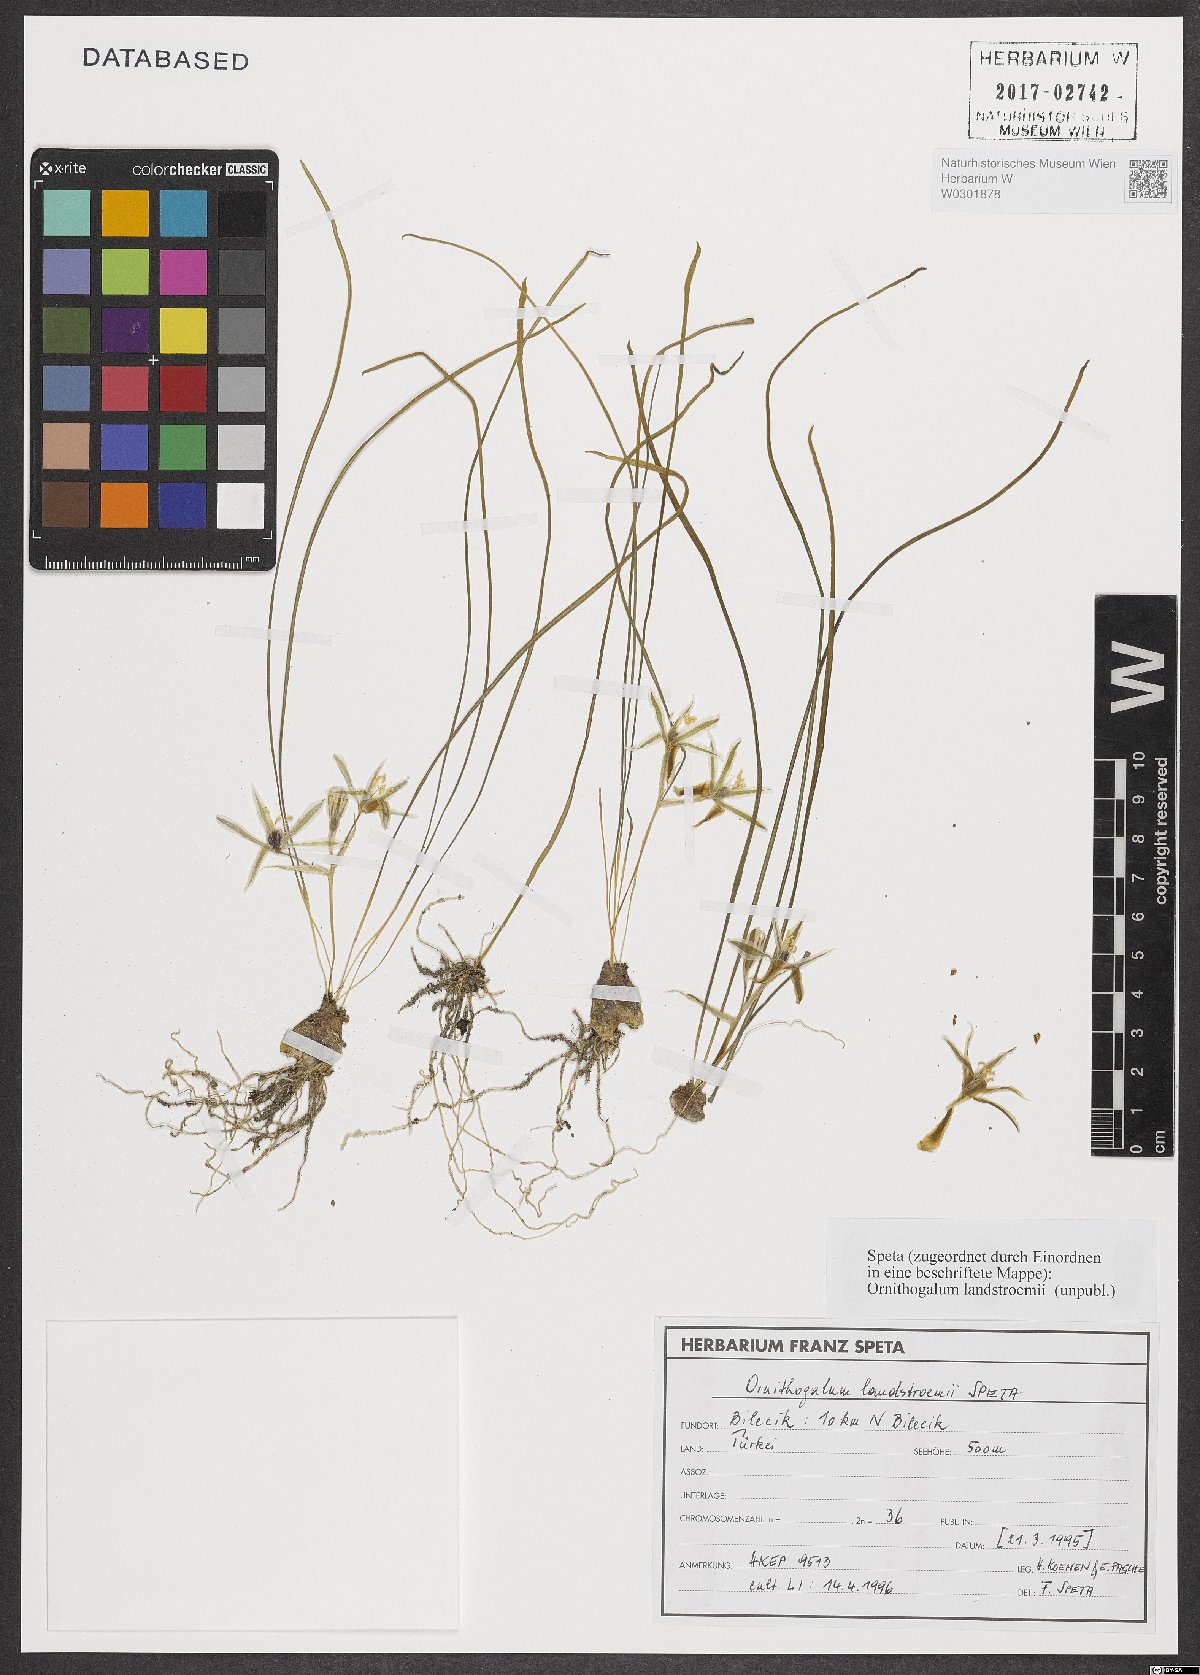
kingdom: Plantae
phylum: Tracheophyta
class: Liliopsida
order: Asparagales
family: Asparagaceae
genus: Ornithogalum
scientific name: Ornithogalum
